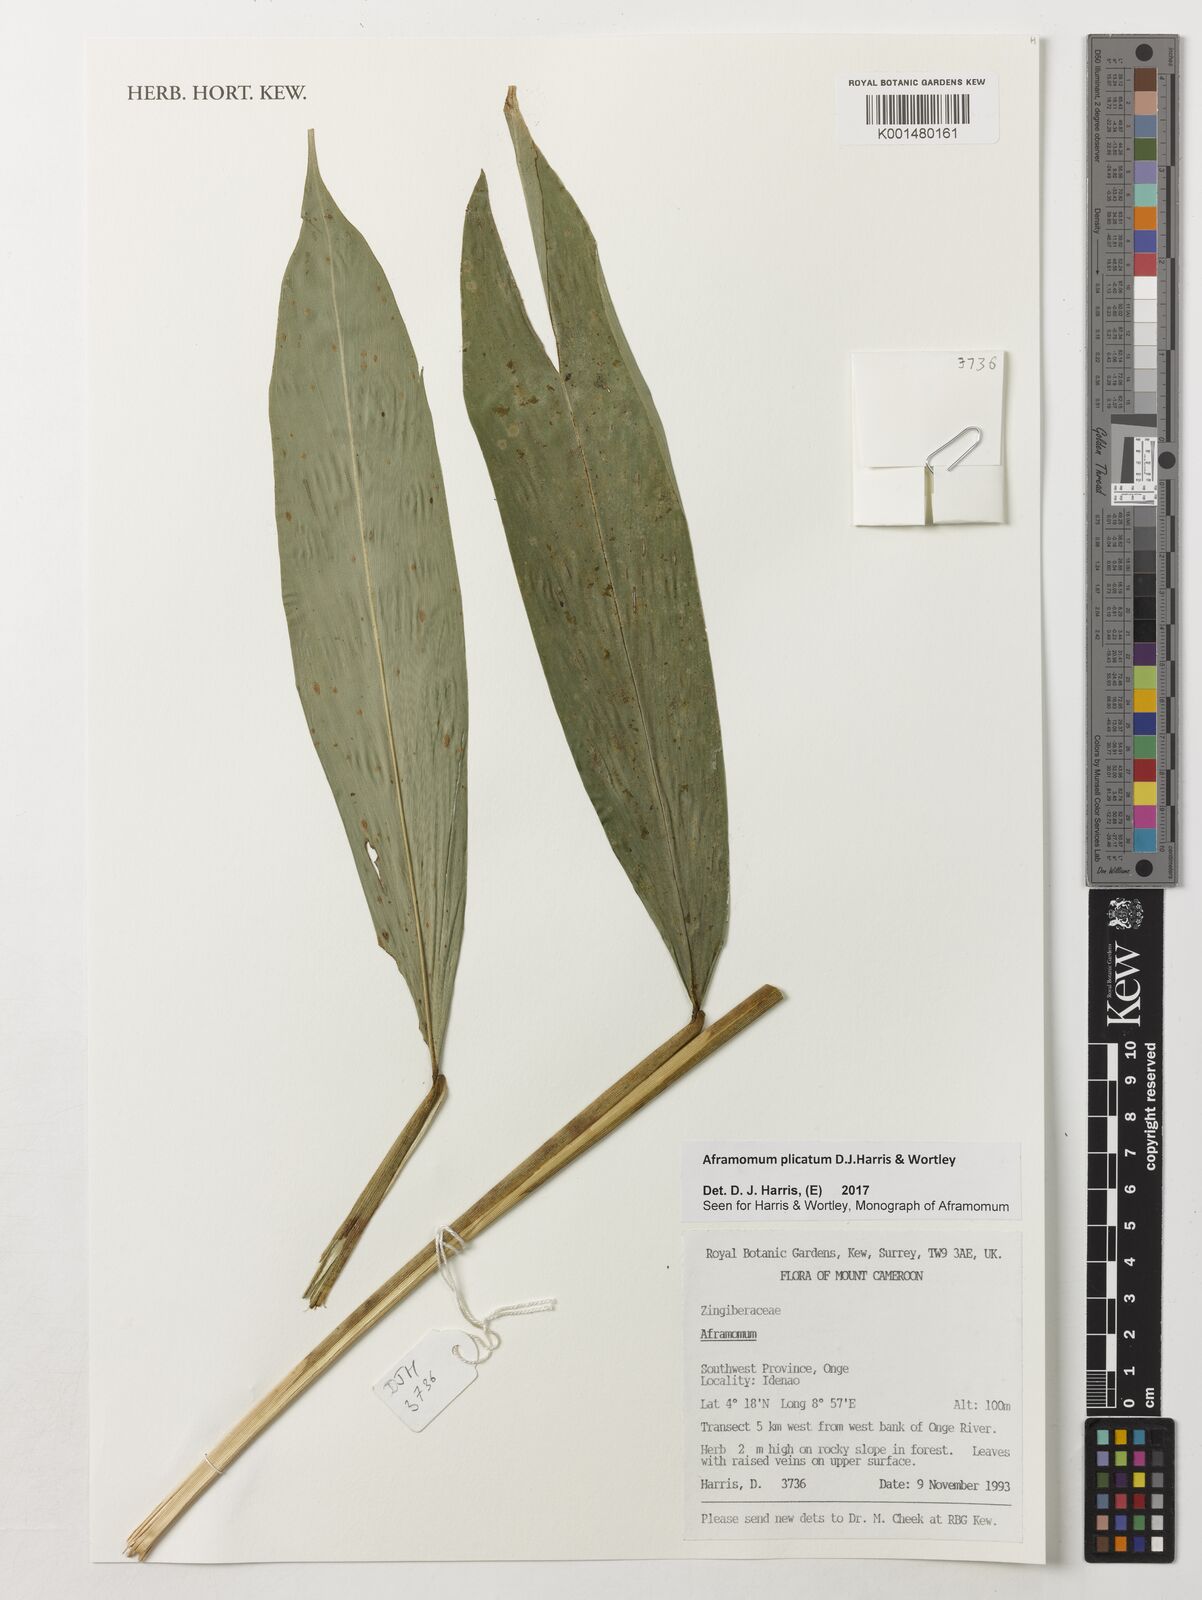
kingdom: Plantae
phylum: Tracheophyta
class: Liliopsida
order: Zingiberales
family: Zingiberaceae
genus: Aframomum
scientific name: Aframomum plicatum
